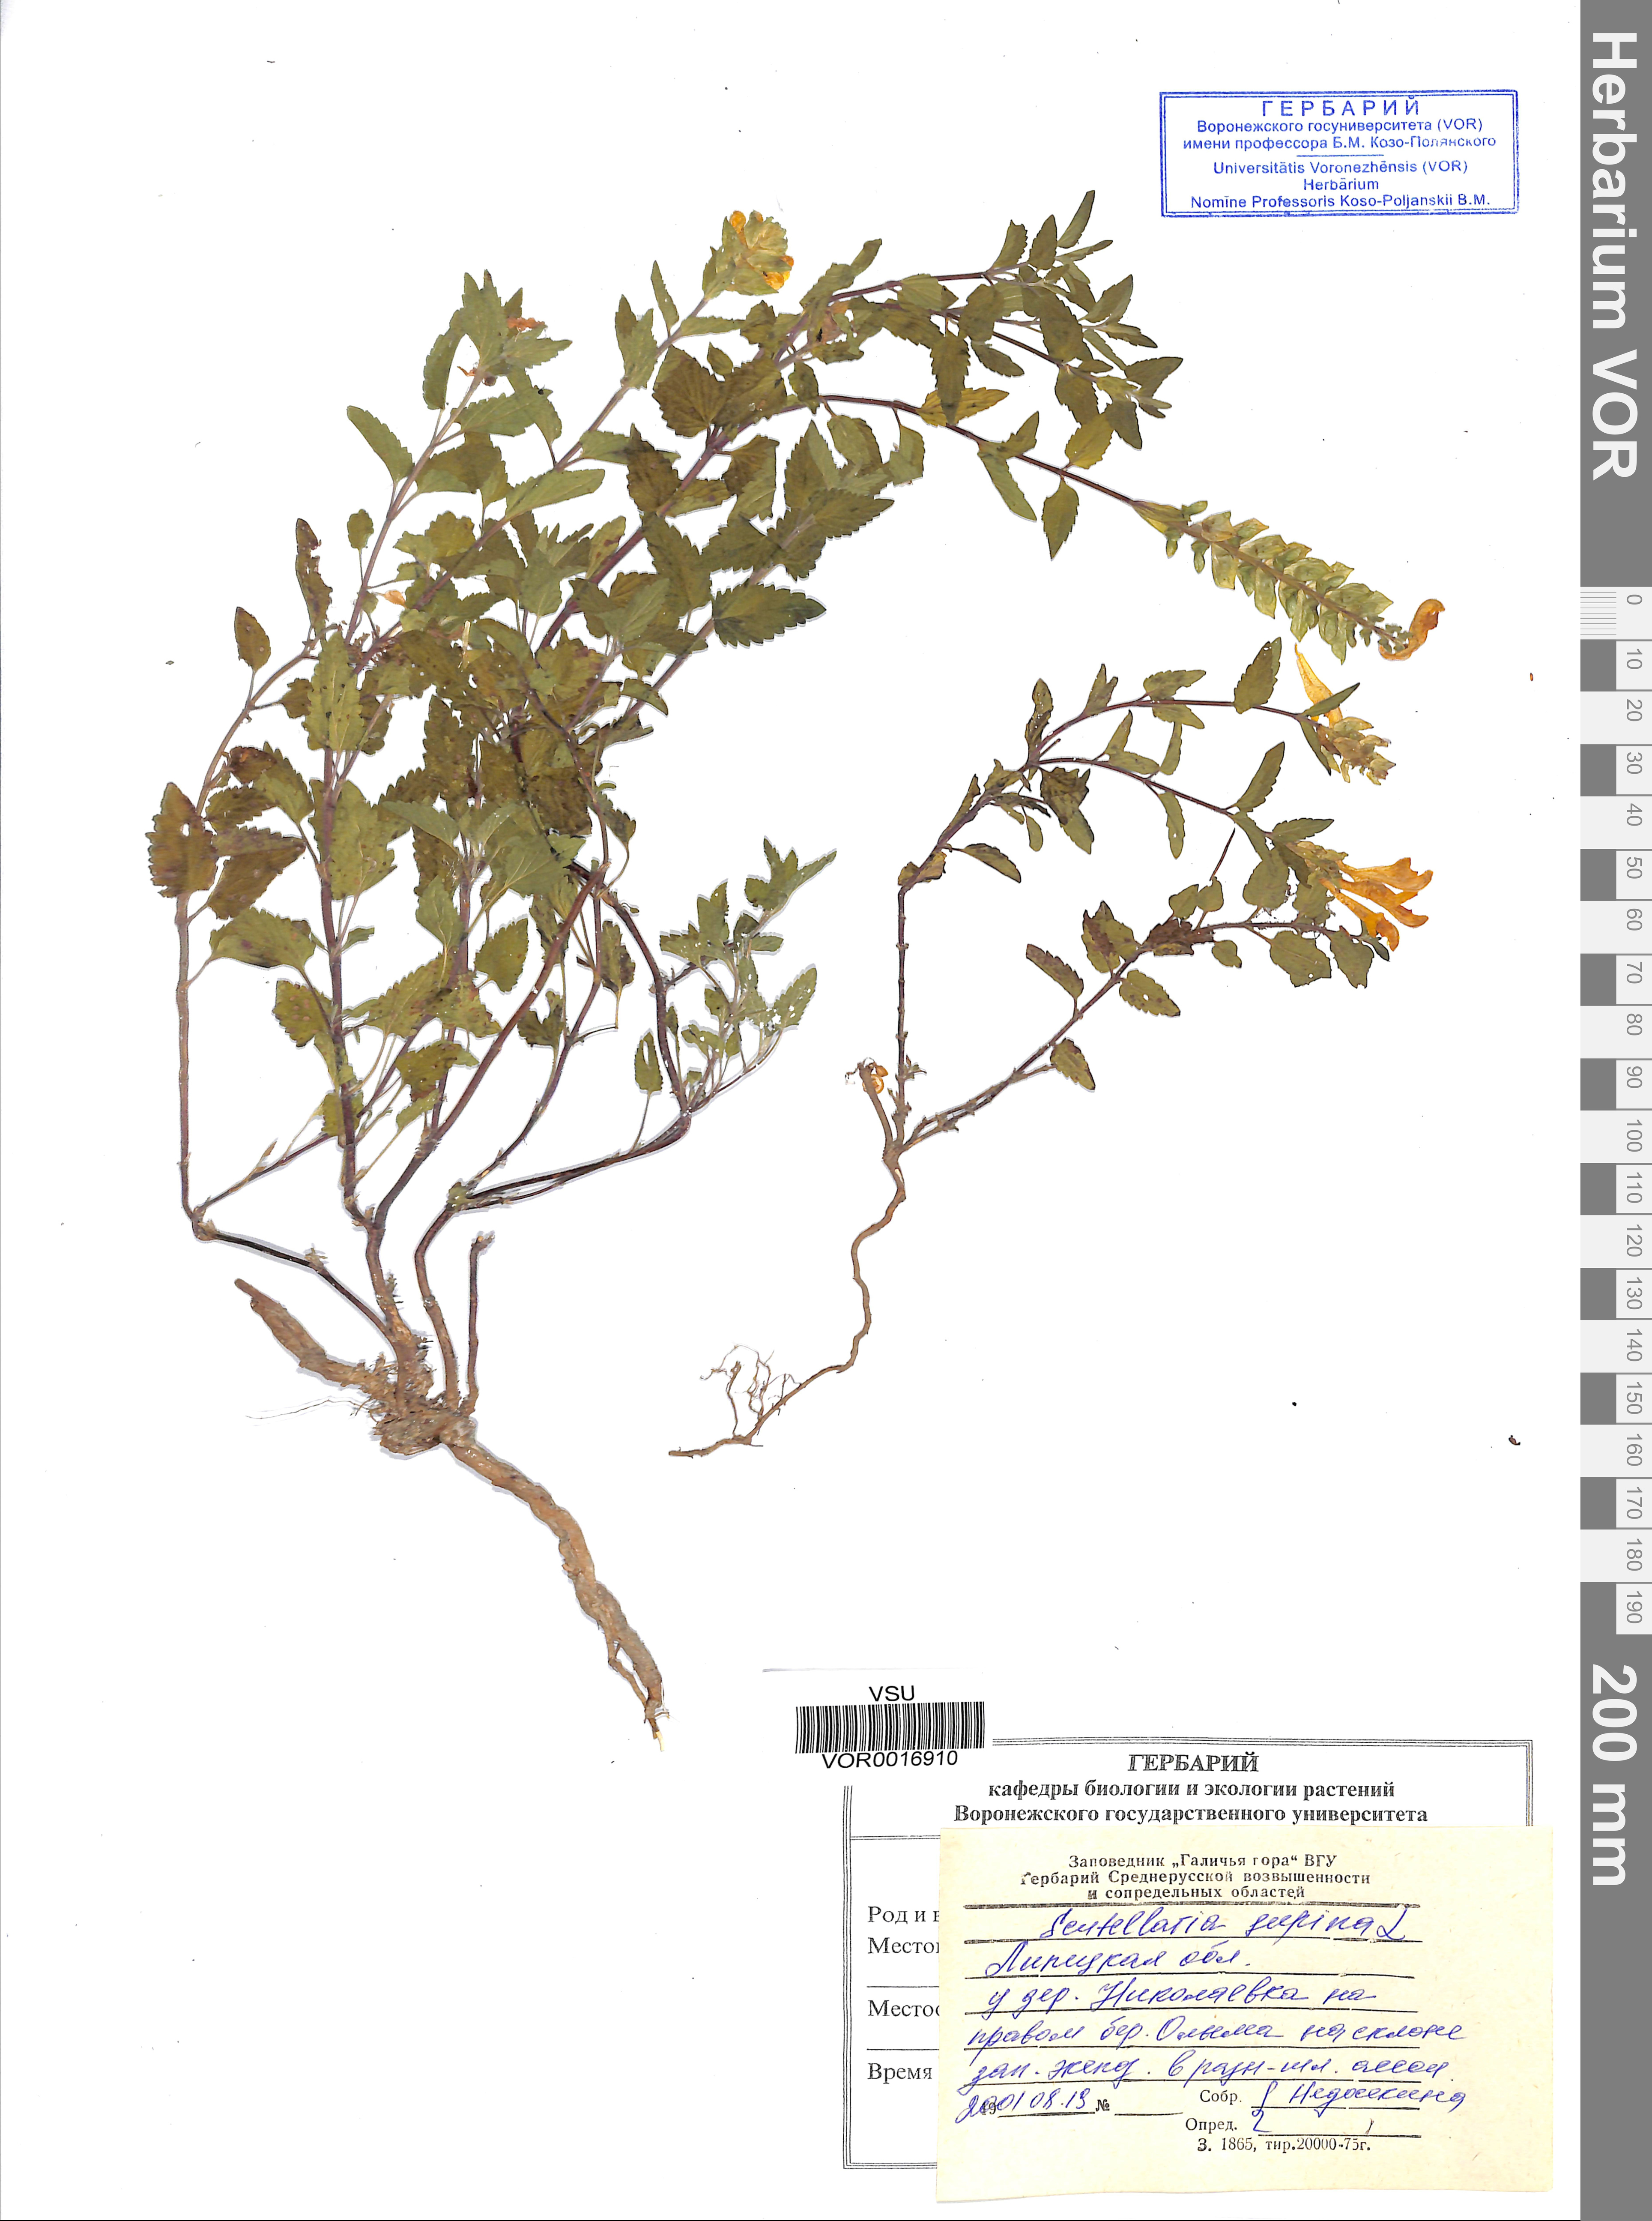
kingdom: Plantae
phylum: Tracheophyta
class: Magnoliopsida
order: Lamiales
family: Lamiaceae
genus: Scutellaria
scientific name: Scutellaria supina
